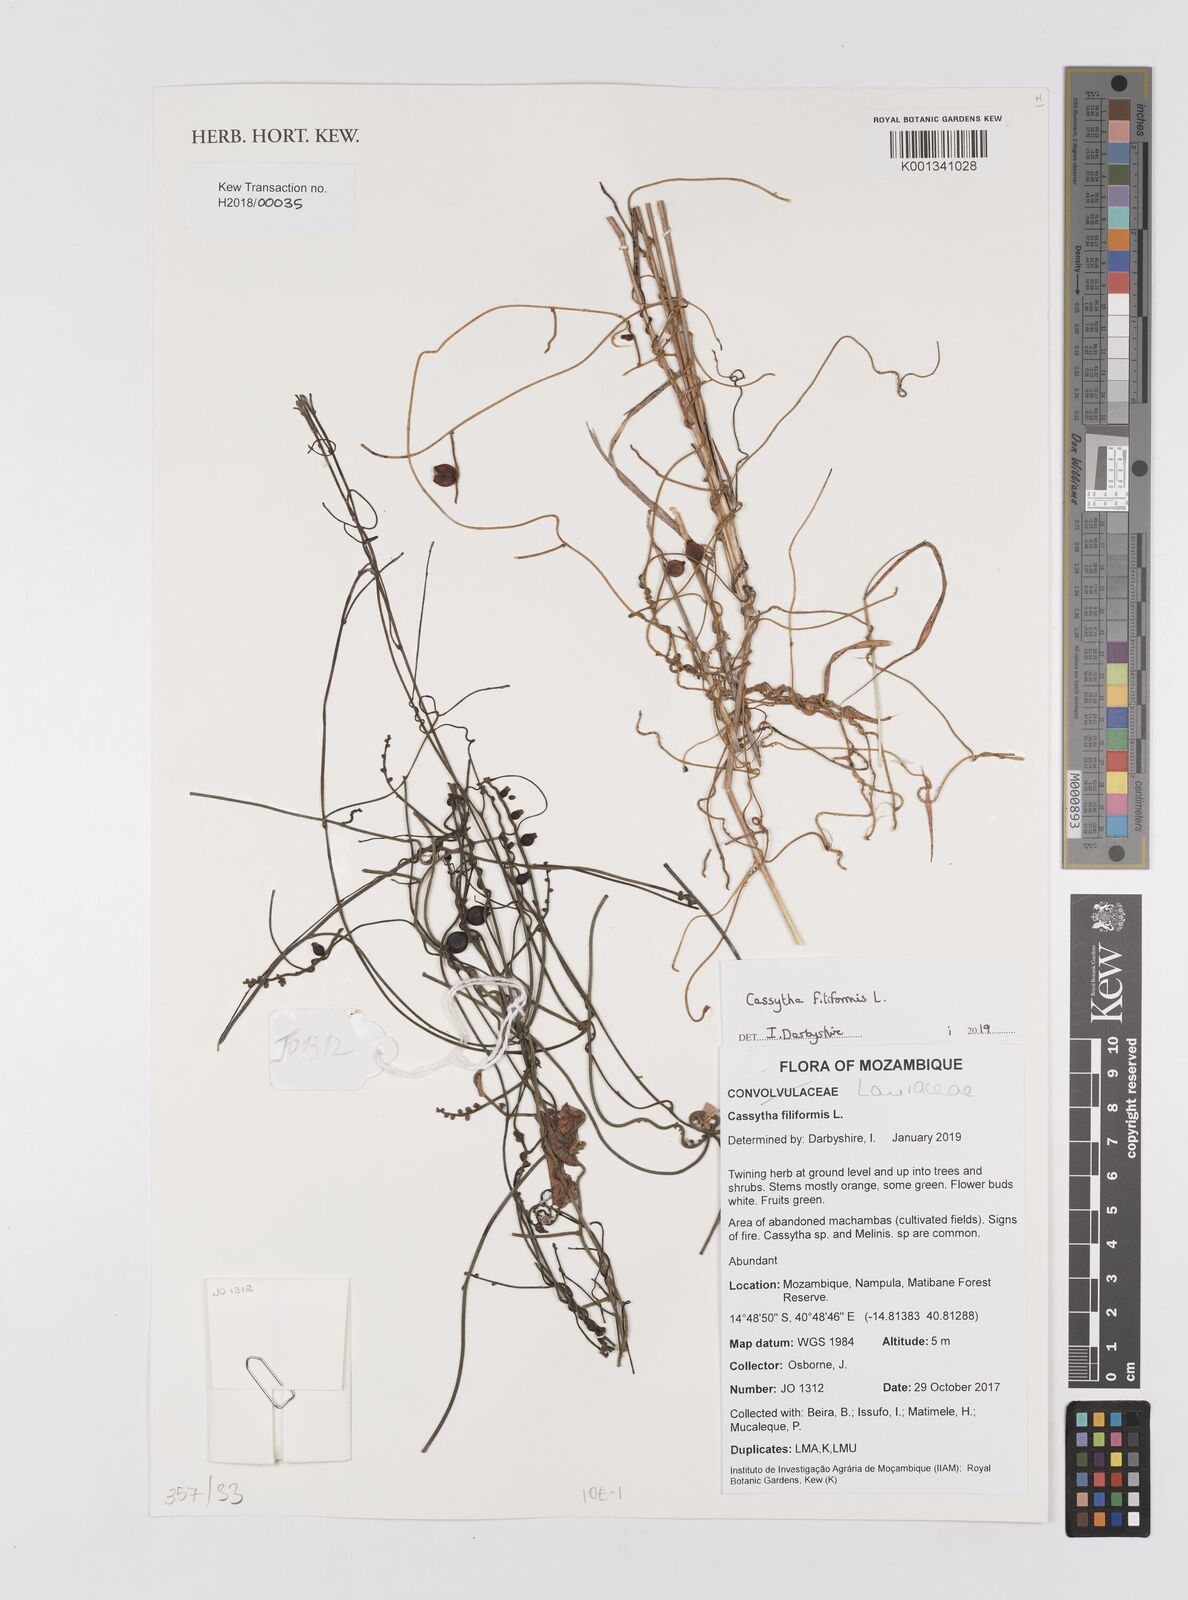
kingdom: Plantae
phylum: Tracheophyta
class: Magnoliopsida
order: Laurales
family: Lauraceae
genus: Cassytha
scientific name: Cassytha filiformis
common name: Dodder-laurel
